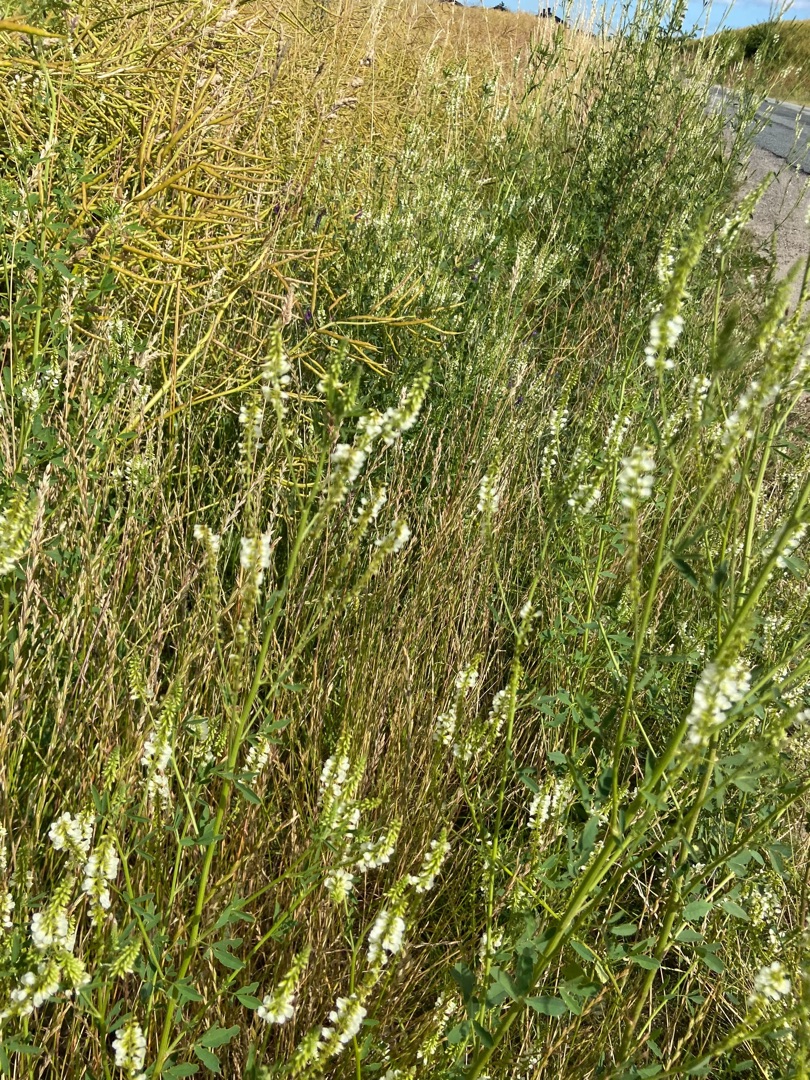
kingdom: Plantae
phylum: Tracheophyta
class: Magnoliopsida
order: Fabales
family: Fabaceae
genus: Melilotus
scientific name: Melilotus albus
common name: Hvid stenkløver
